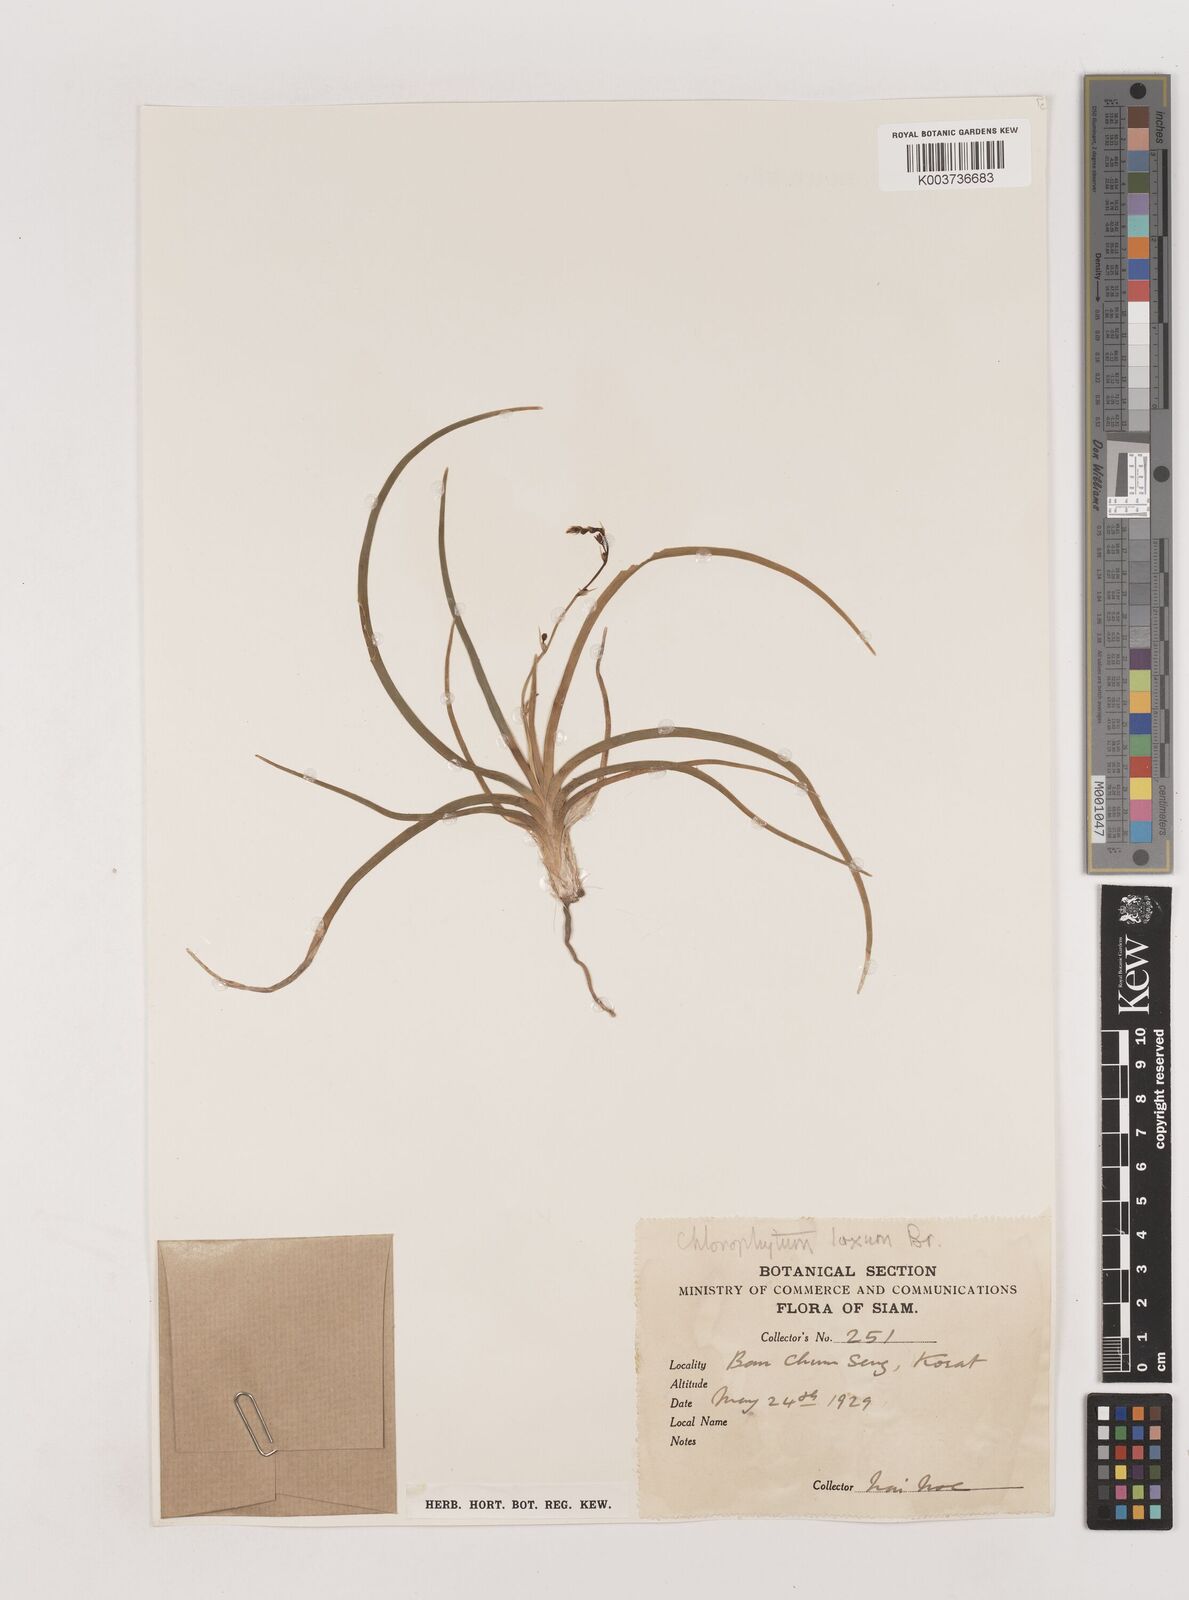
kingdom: Plantae
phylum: Tracheophyta
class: Liliopsida
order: Asparagales
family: Asparagaceae
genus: Chlorophytum
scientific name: Chlorophytum laxum
